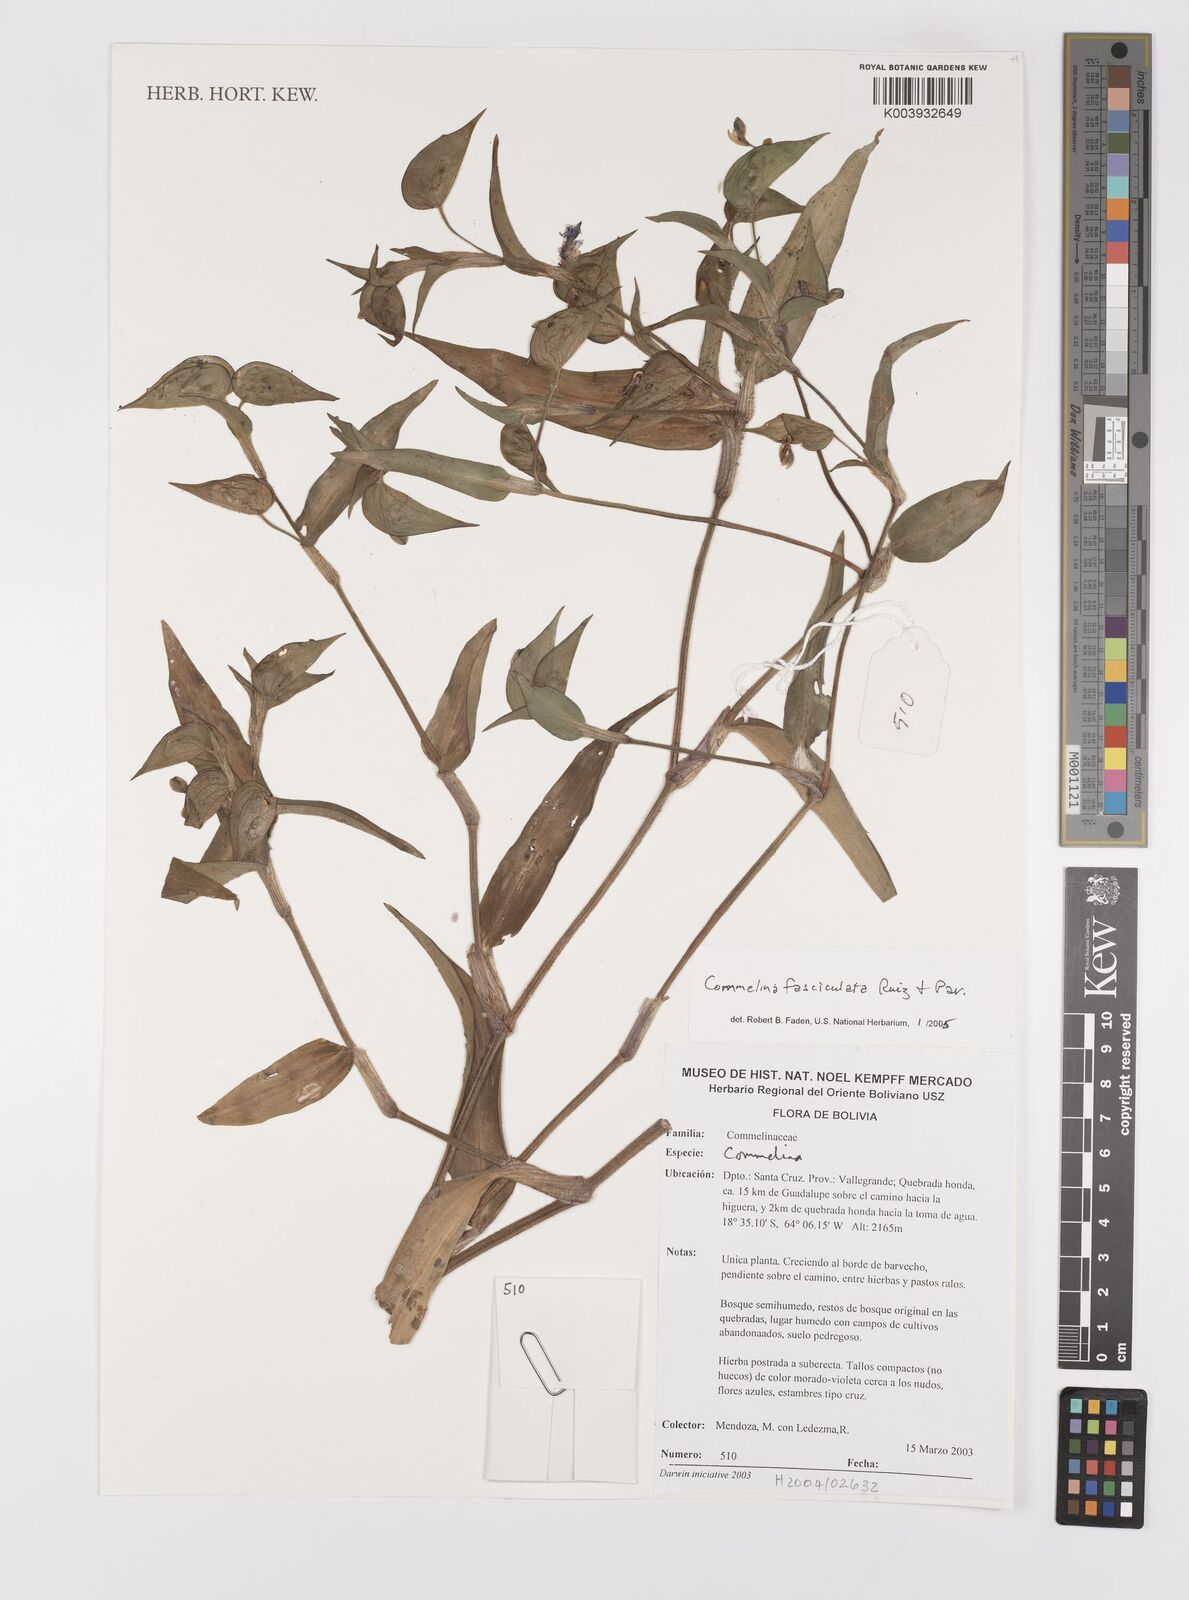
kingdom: Plantae
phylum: Tracheophyta
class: Liliopsida
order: Commelinales
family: Commelinaceae
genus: Commelina
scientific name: Commelina tuberosa
